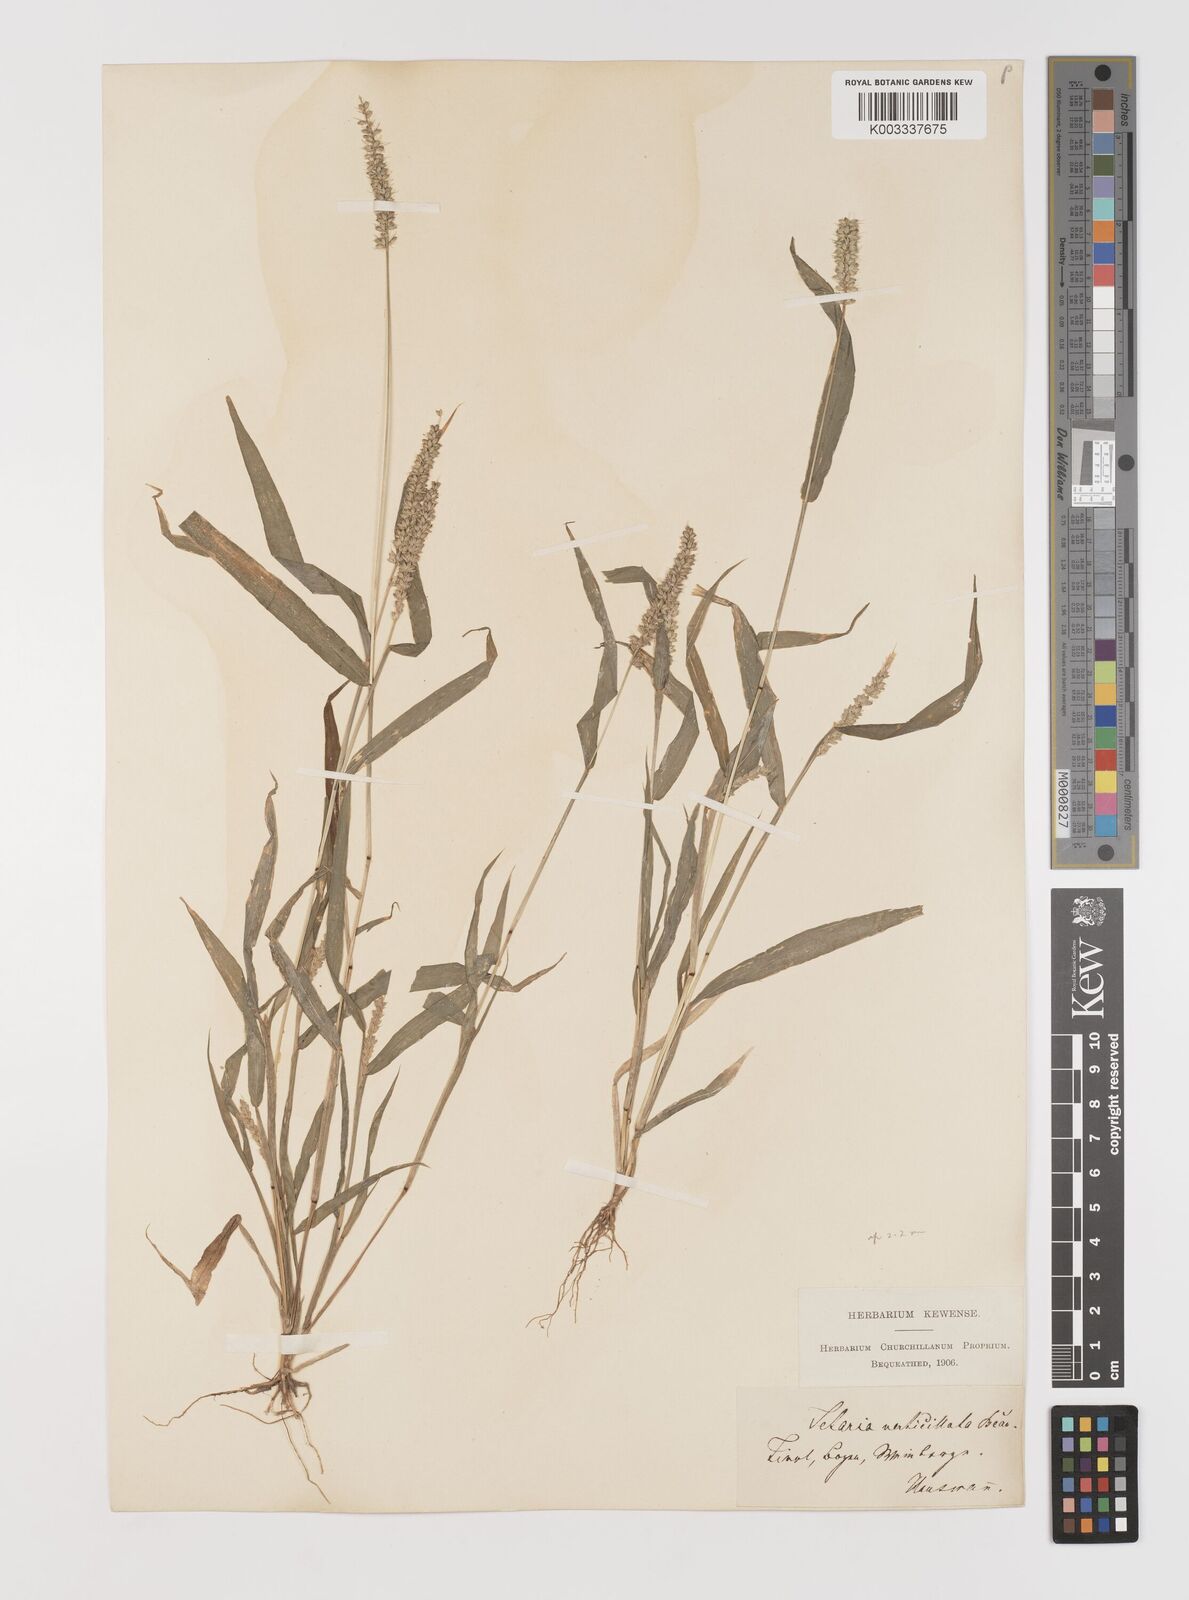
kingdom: Plantae
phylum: Tracheophyta
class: Liliopsida
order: Poales
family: Poaceae
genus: Setaria
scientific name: Setaria verticillata
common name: Hooked bristlegrass
